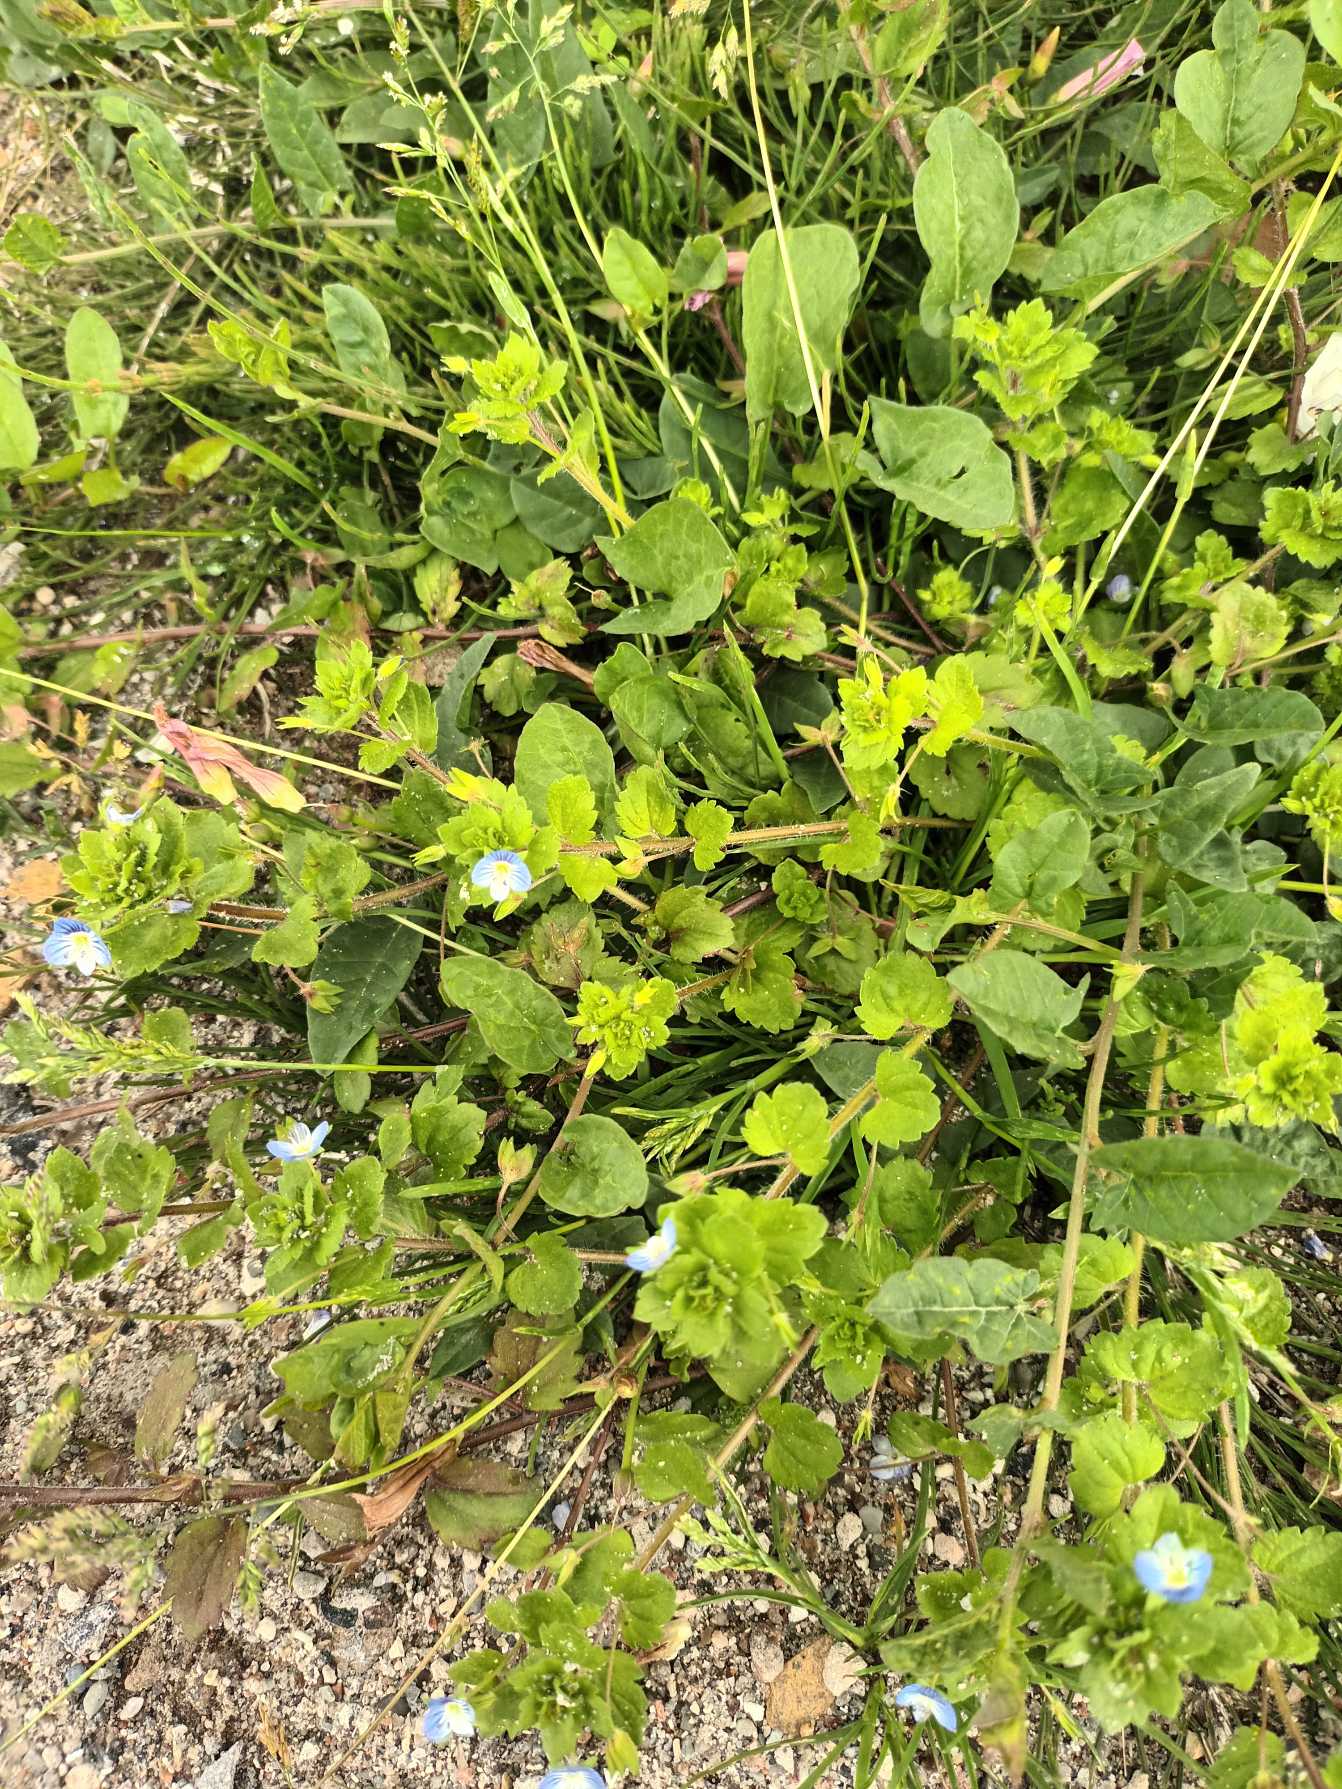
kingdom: Plantae
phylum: Tracheophyta
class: Magnoliopsida
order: Lamiales
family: Plantaginaceae
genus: Veronica
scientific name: Veronica persica
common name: Storkronet ærenpris
